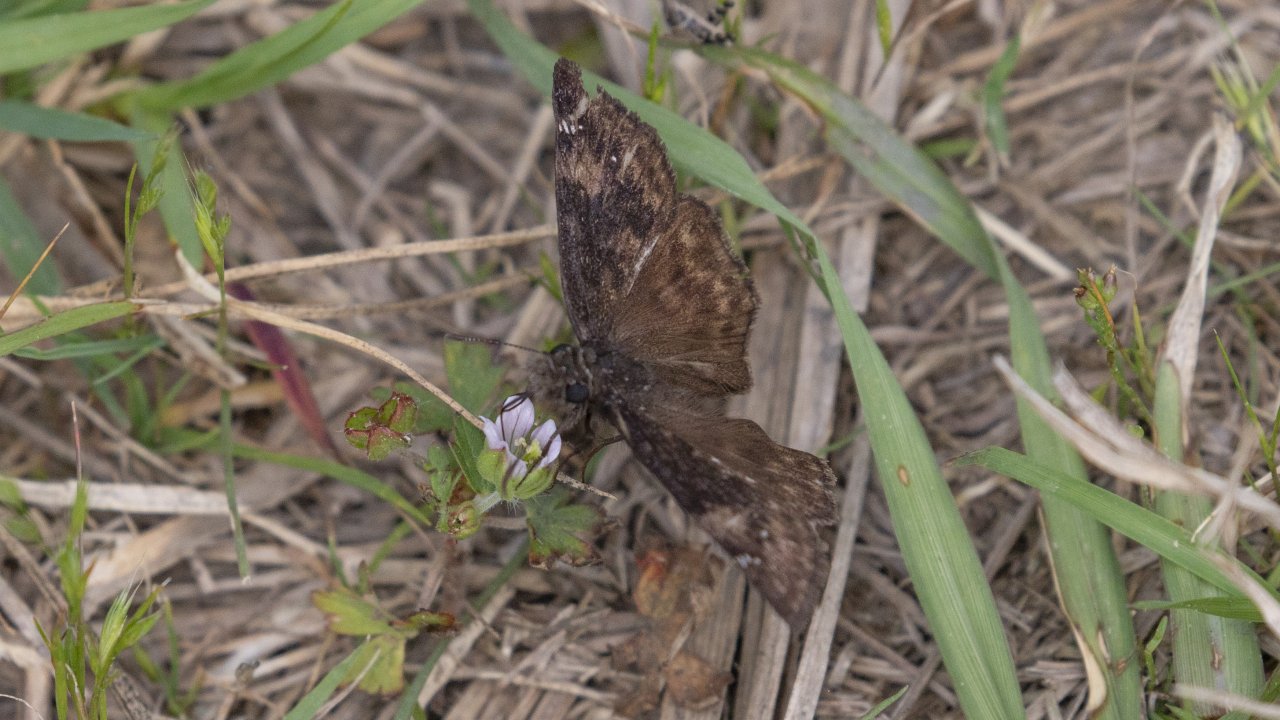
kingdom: Animalia
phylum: Arthropoda
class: Insecta
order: Lepidoptera
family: Hesperiidae
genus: Gesta
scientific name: Gesta
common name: Horace's Duskywing
